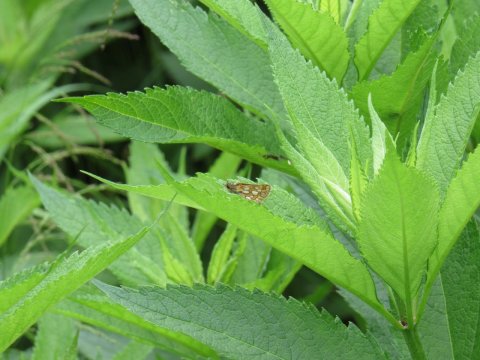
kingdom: Animalia
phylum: Arthropoda
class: Insecta
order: Lepidoptera
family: Hesperiidae
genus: Carterocephalus
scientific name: Carterocephalus palaemon
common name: Chequered Skipper
